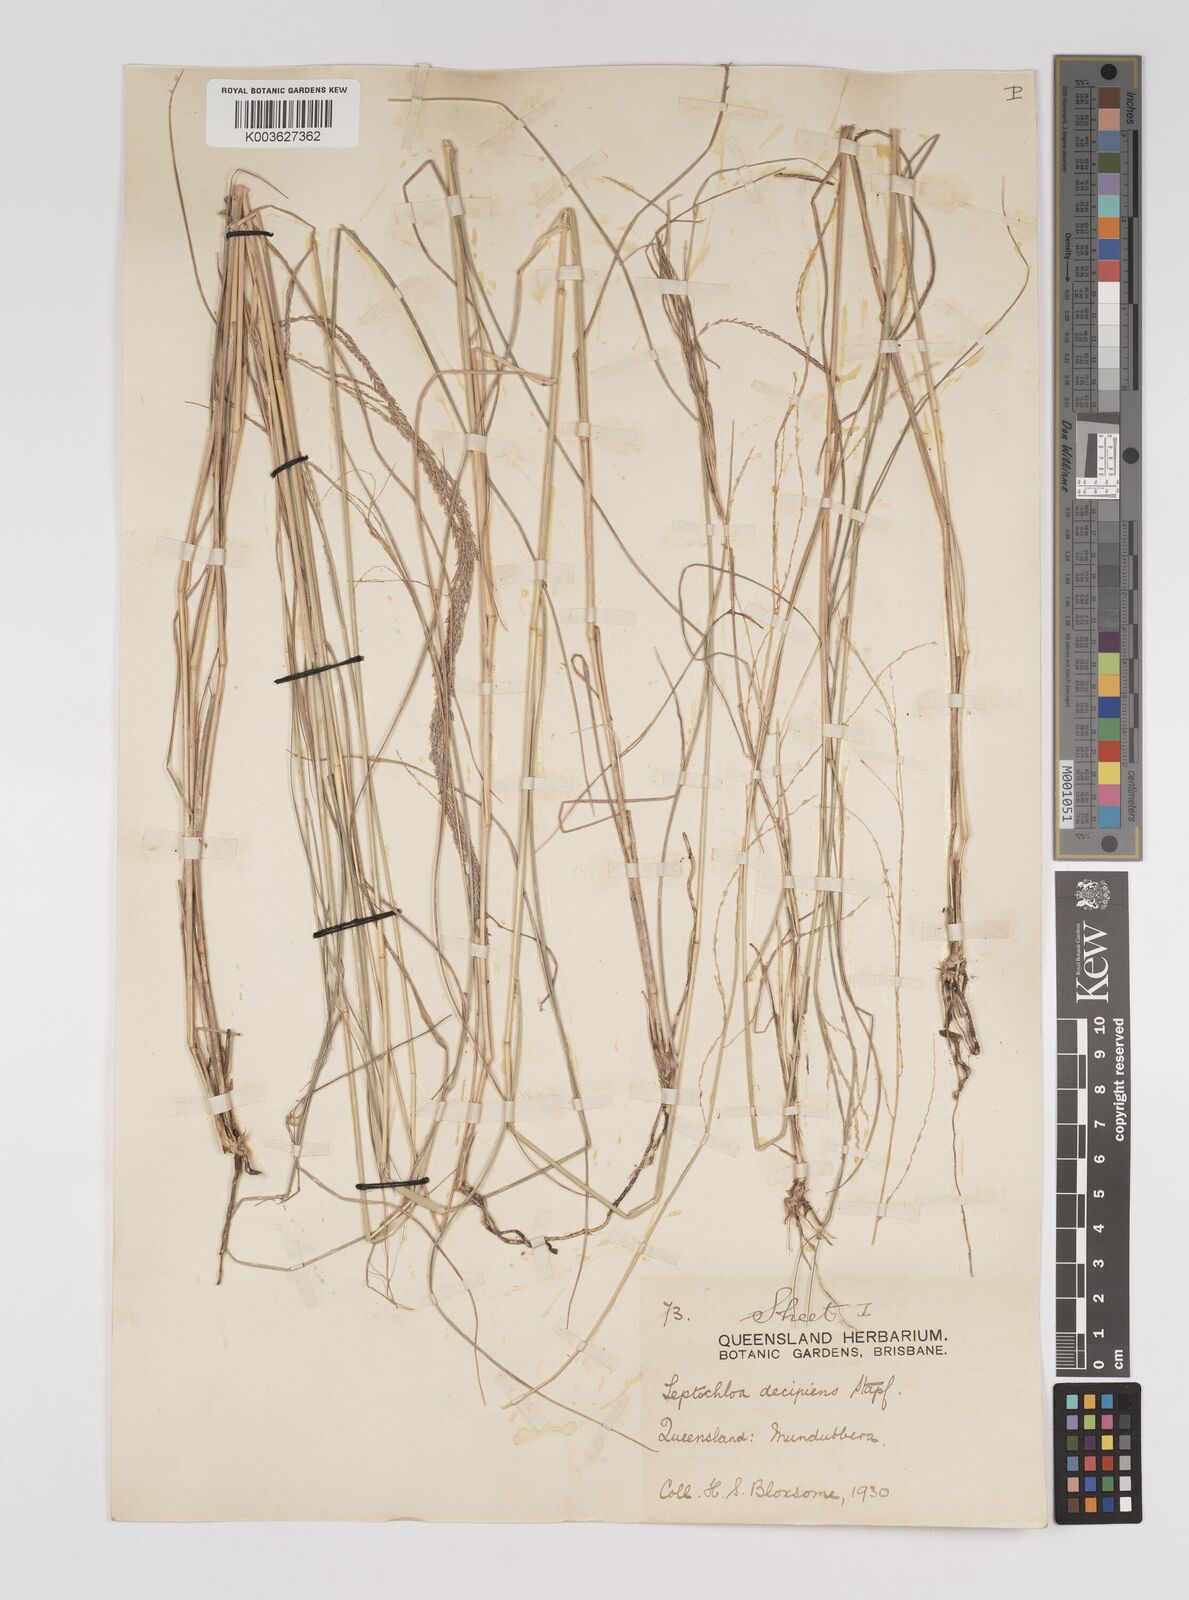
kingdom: Plantae
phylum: Tracheophyta
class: Liliopsida
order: Poales
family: Poaceae
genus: Leptochloa
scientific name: Leptochloa decipiens
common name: Australian sprangletop
